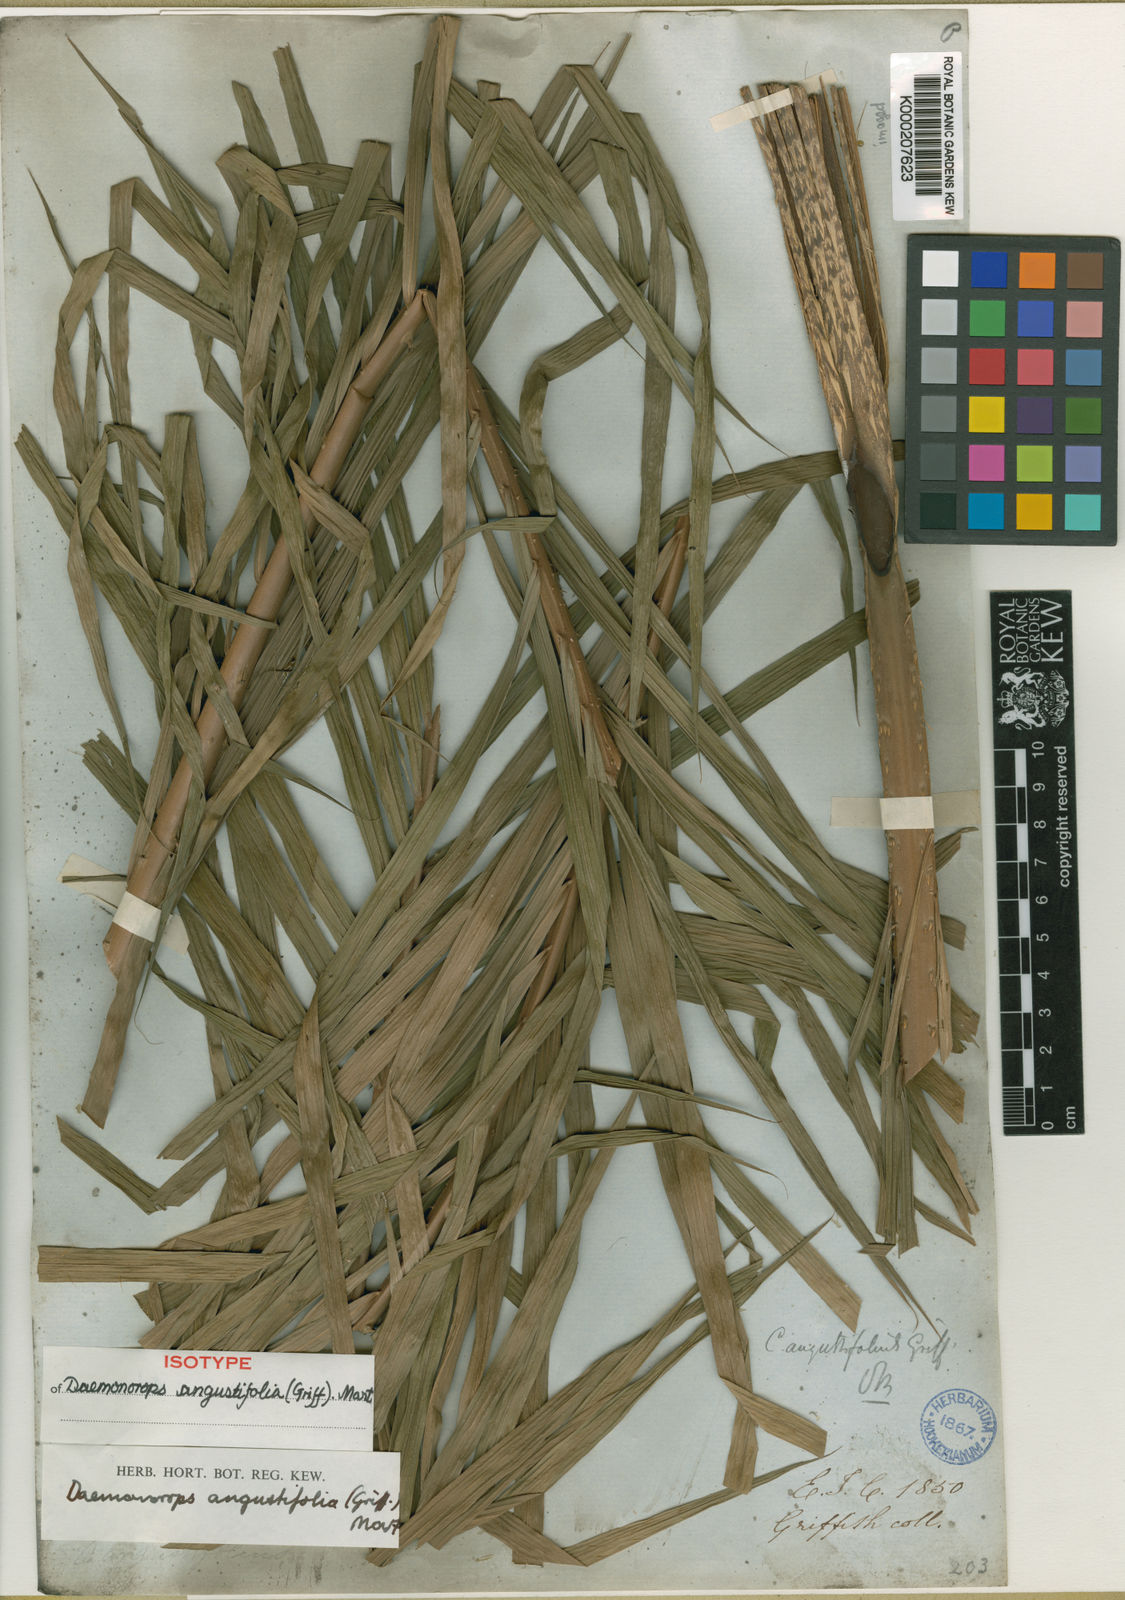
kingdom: Plantae
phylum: Tracheophyta
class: Liliopsida
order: Arecales
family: Arecaceae
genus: Calamus
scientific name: Calamus melanochaetes
